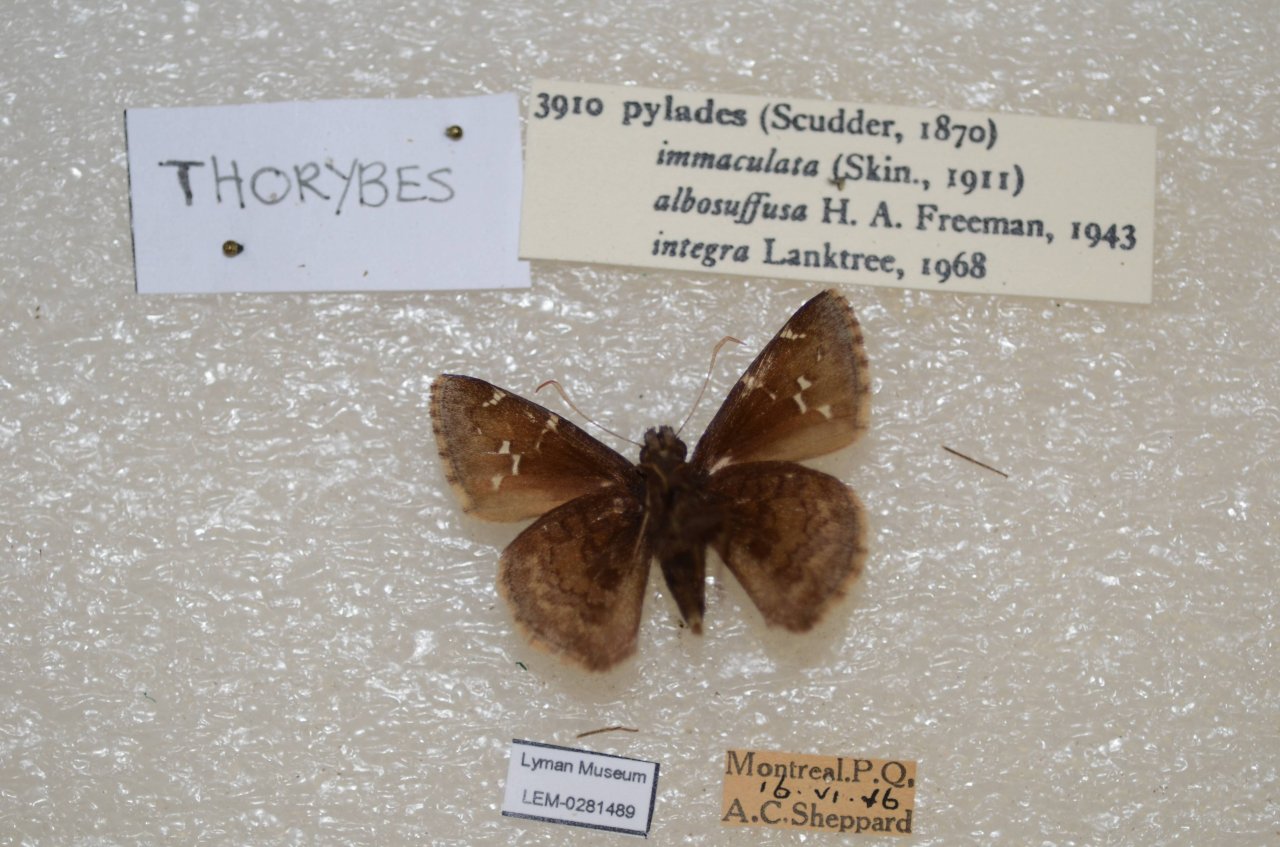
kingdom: Animalia
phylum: Arthropoda
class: Insecta
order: Lepidoptera
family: Hesperiidae
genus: Autochton
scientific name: Autochton
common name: Northern Cloudywing
